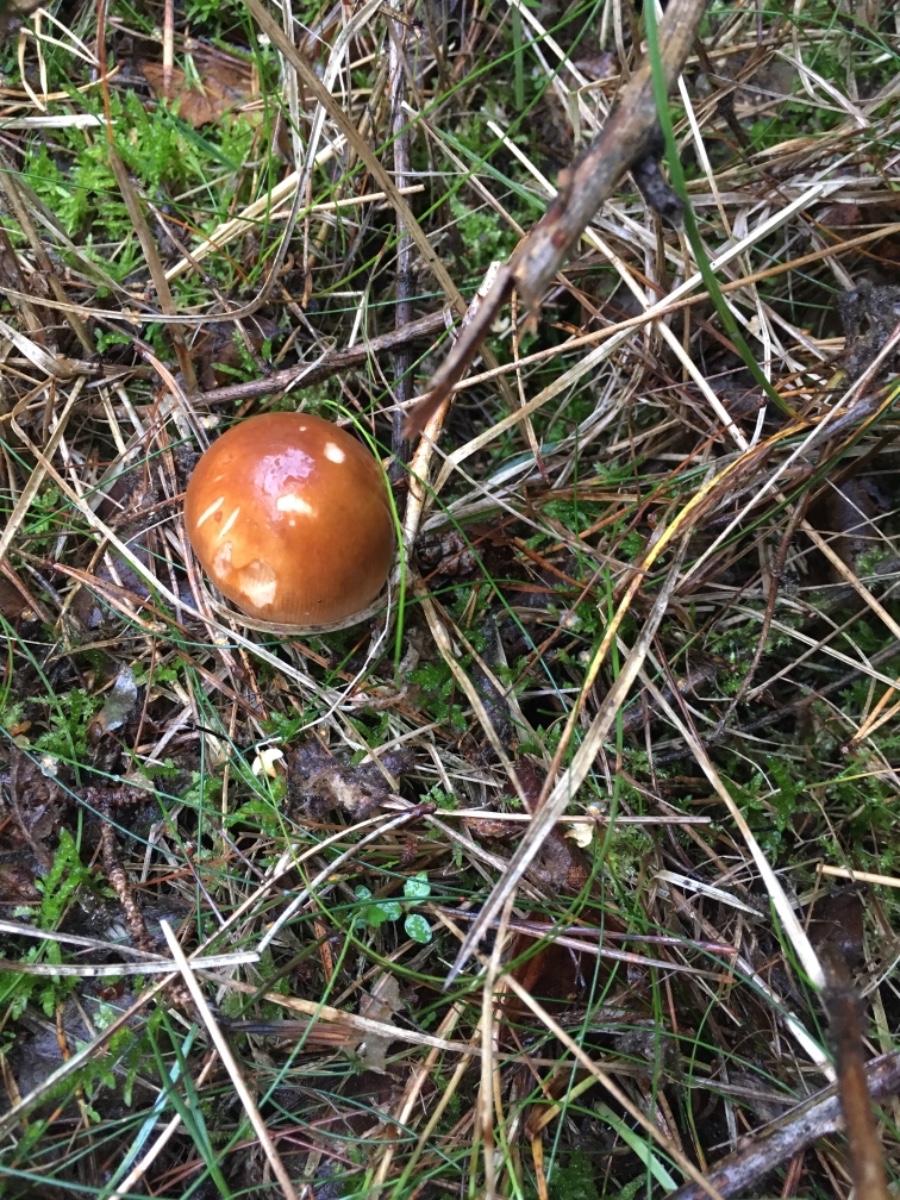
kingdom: Fungi
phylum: Basidiomycota
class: Agaricomycetes
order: Agaricales
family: Amanitaceae
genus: Amanita
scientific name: Amanita fulva
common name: brun kam-fluesvamp
